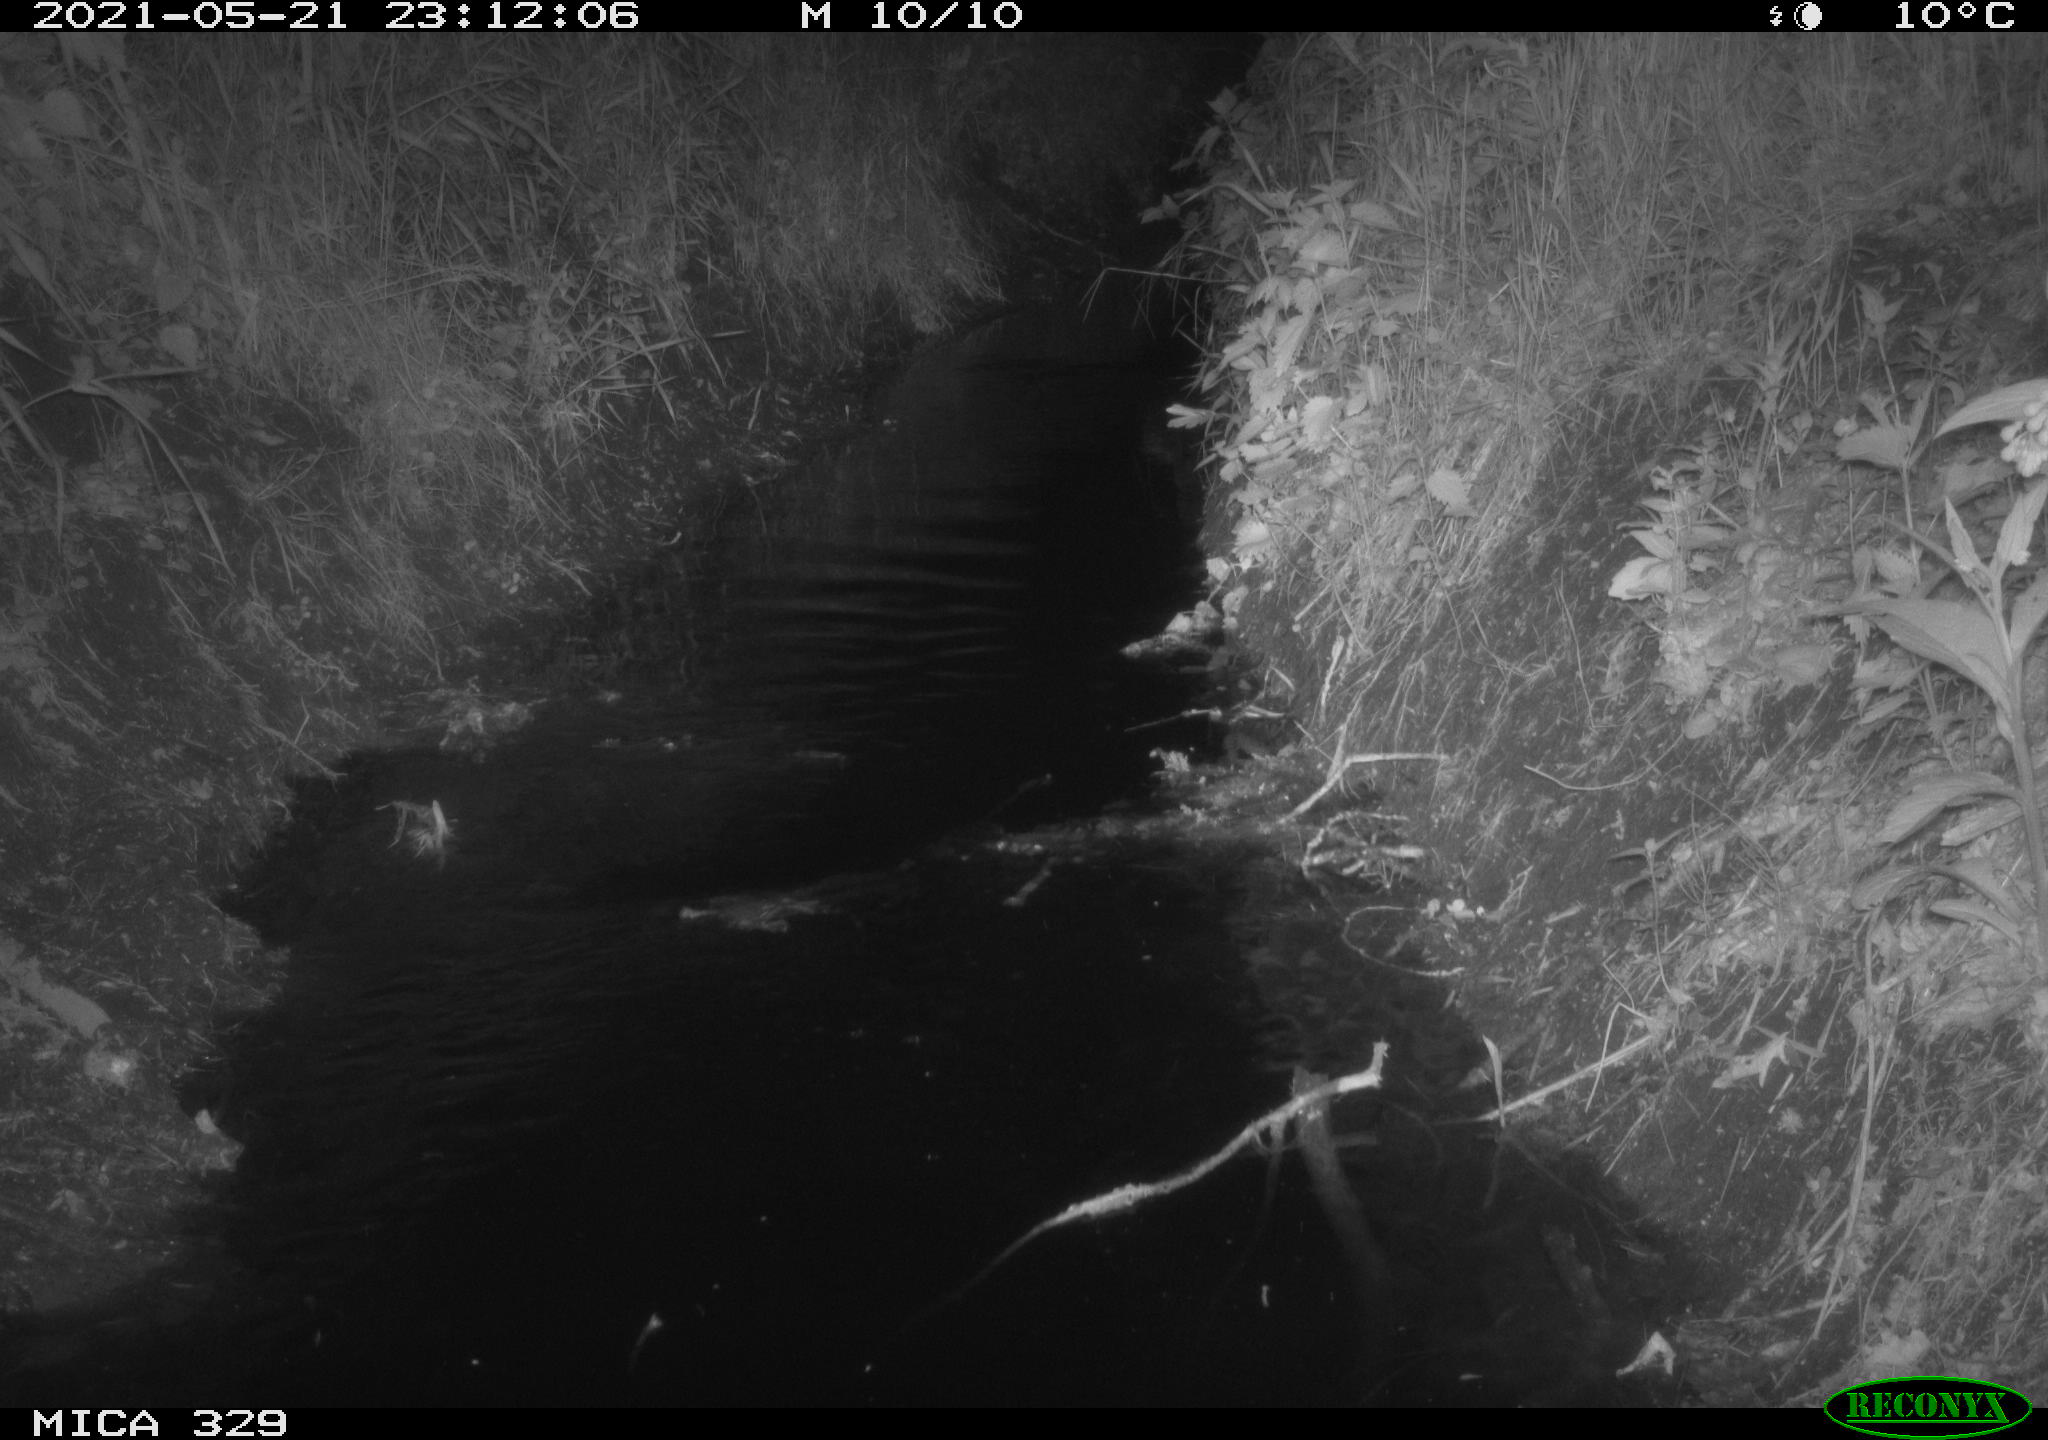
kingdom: Animalia
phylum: Chordata
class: Mammalia
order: Rodentia
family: Cricetidae
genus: Ondatra
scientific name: Ondatra zibethicus
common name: Muskrat
